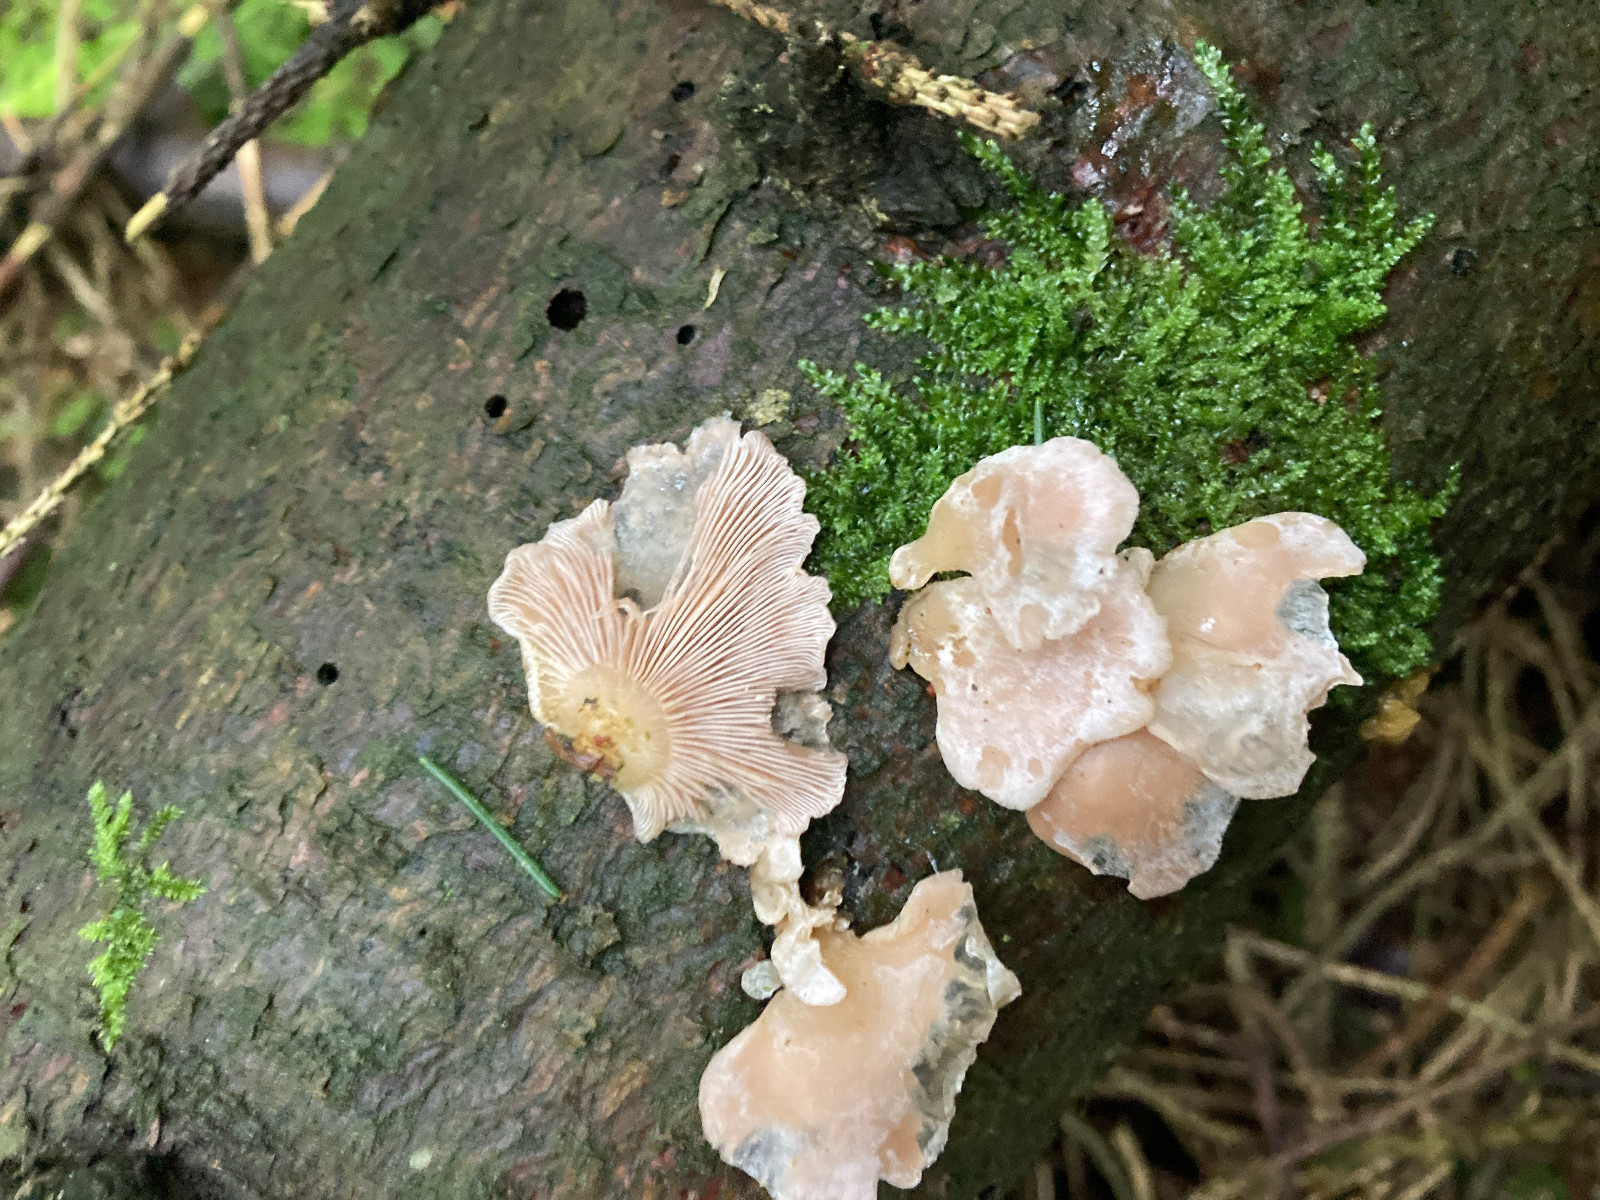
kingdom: Fungi
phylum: Basidiomycota
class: Agaricomycetes
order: Agaricales
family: Mycenaceae
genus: Panellus
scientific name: Panellus mitis
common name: mild epaulethat
